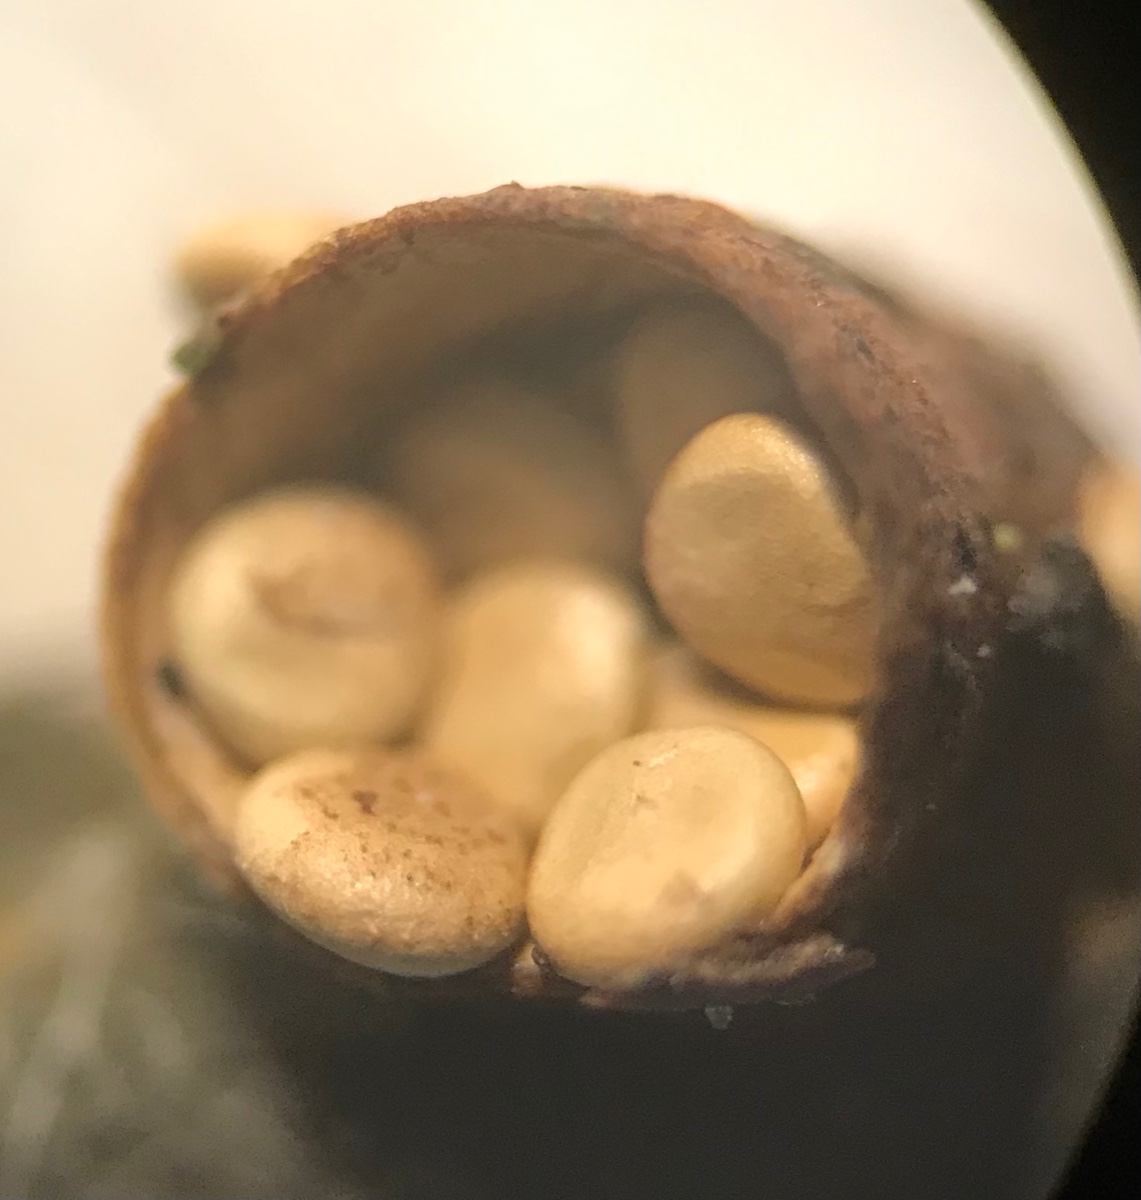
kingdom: Fungi
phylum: Basidiomycota
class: Agaricomycetes
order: Agaricales
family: Nidulariaceae
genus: Crucibulum
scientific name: Crucibulum crucibuliforme
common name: krukkesvamp
